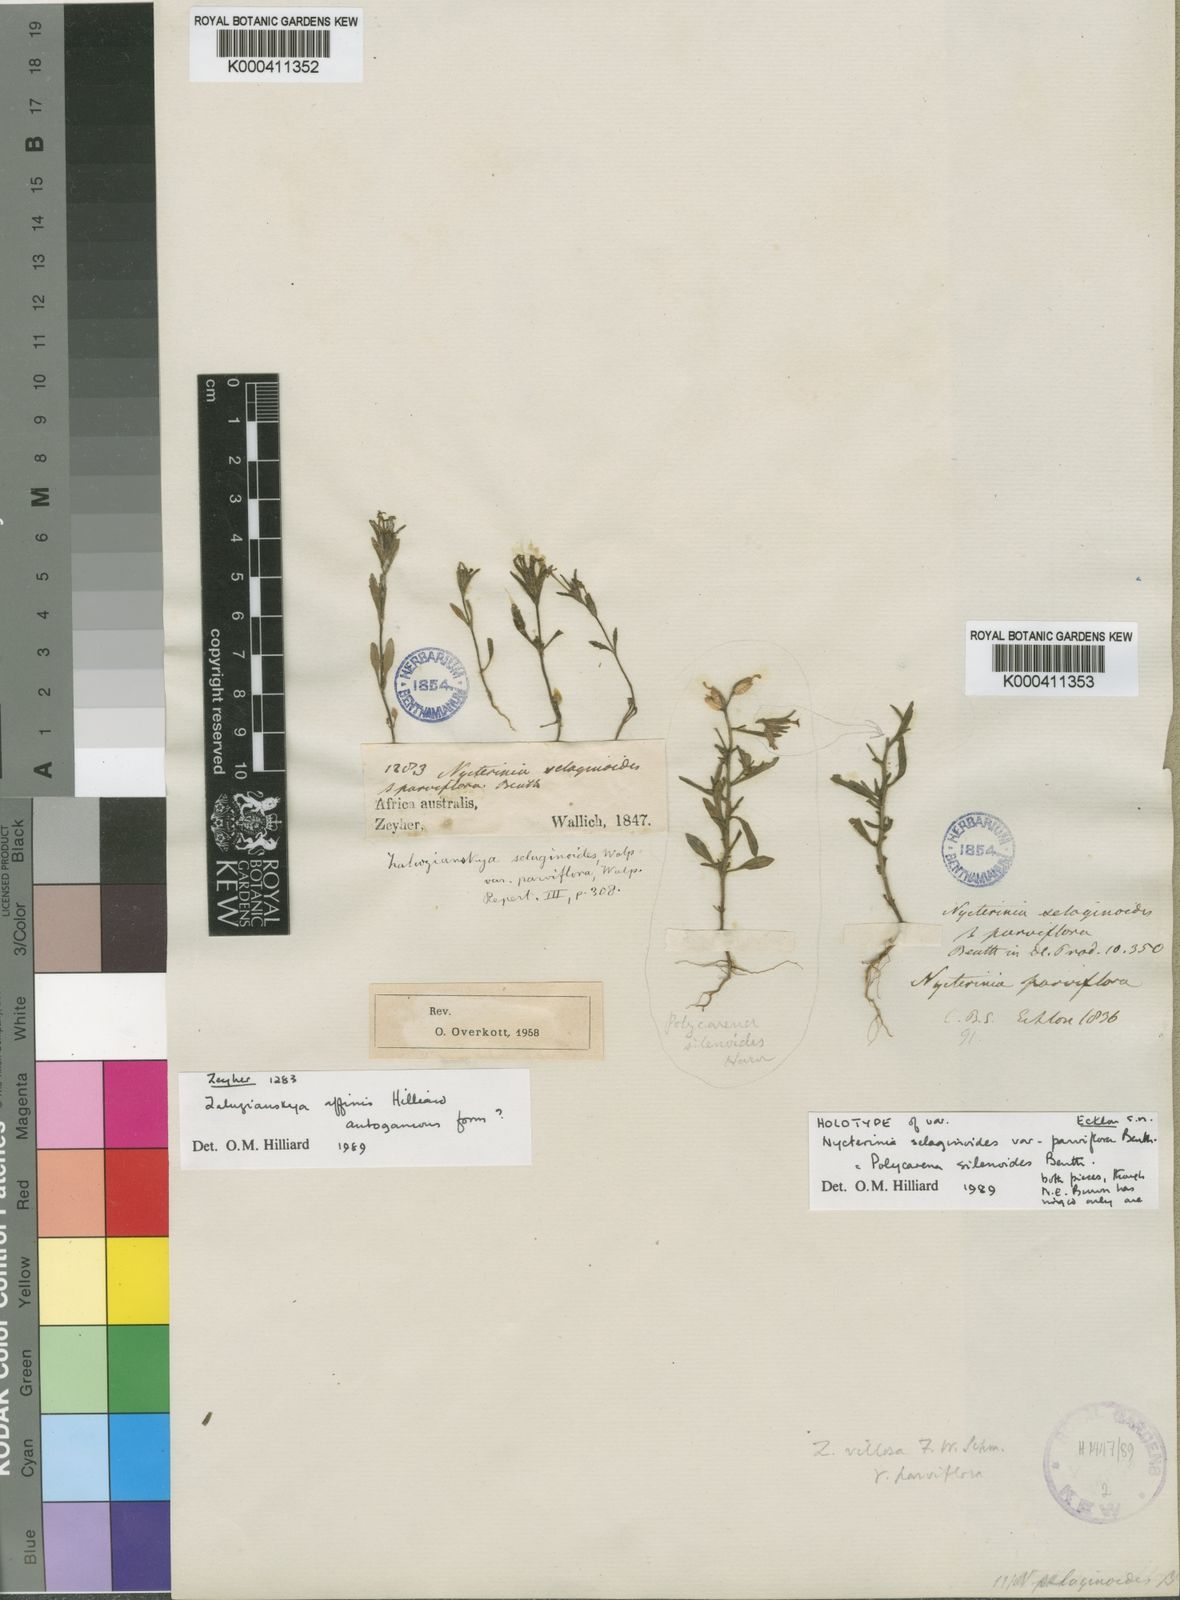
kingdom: Plantae
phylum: Tracheophyta
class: Magnoliopsida
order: Lamiales
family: Scrophulariaceae
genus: Zaluzianskya
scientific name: Zaluzianskya villosa
